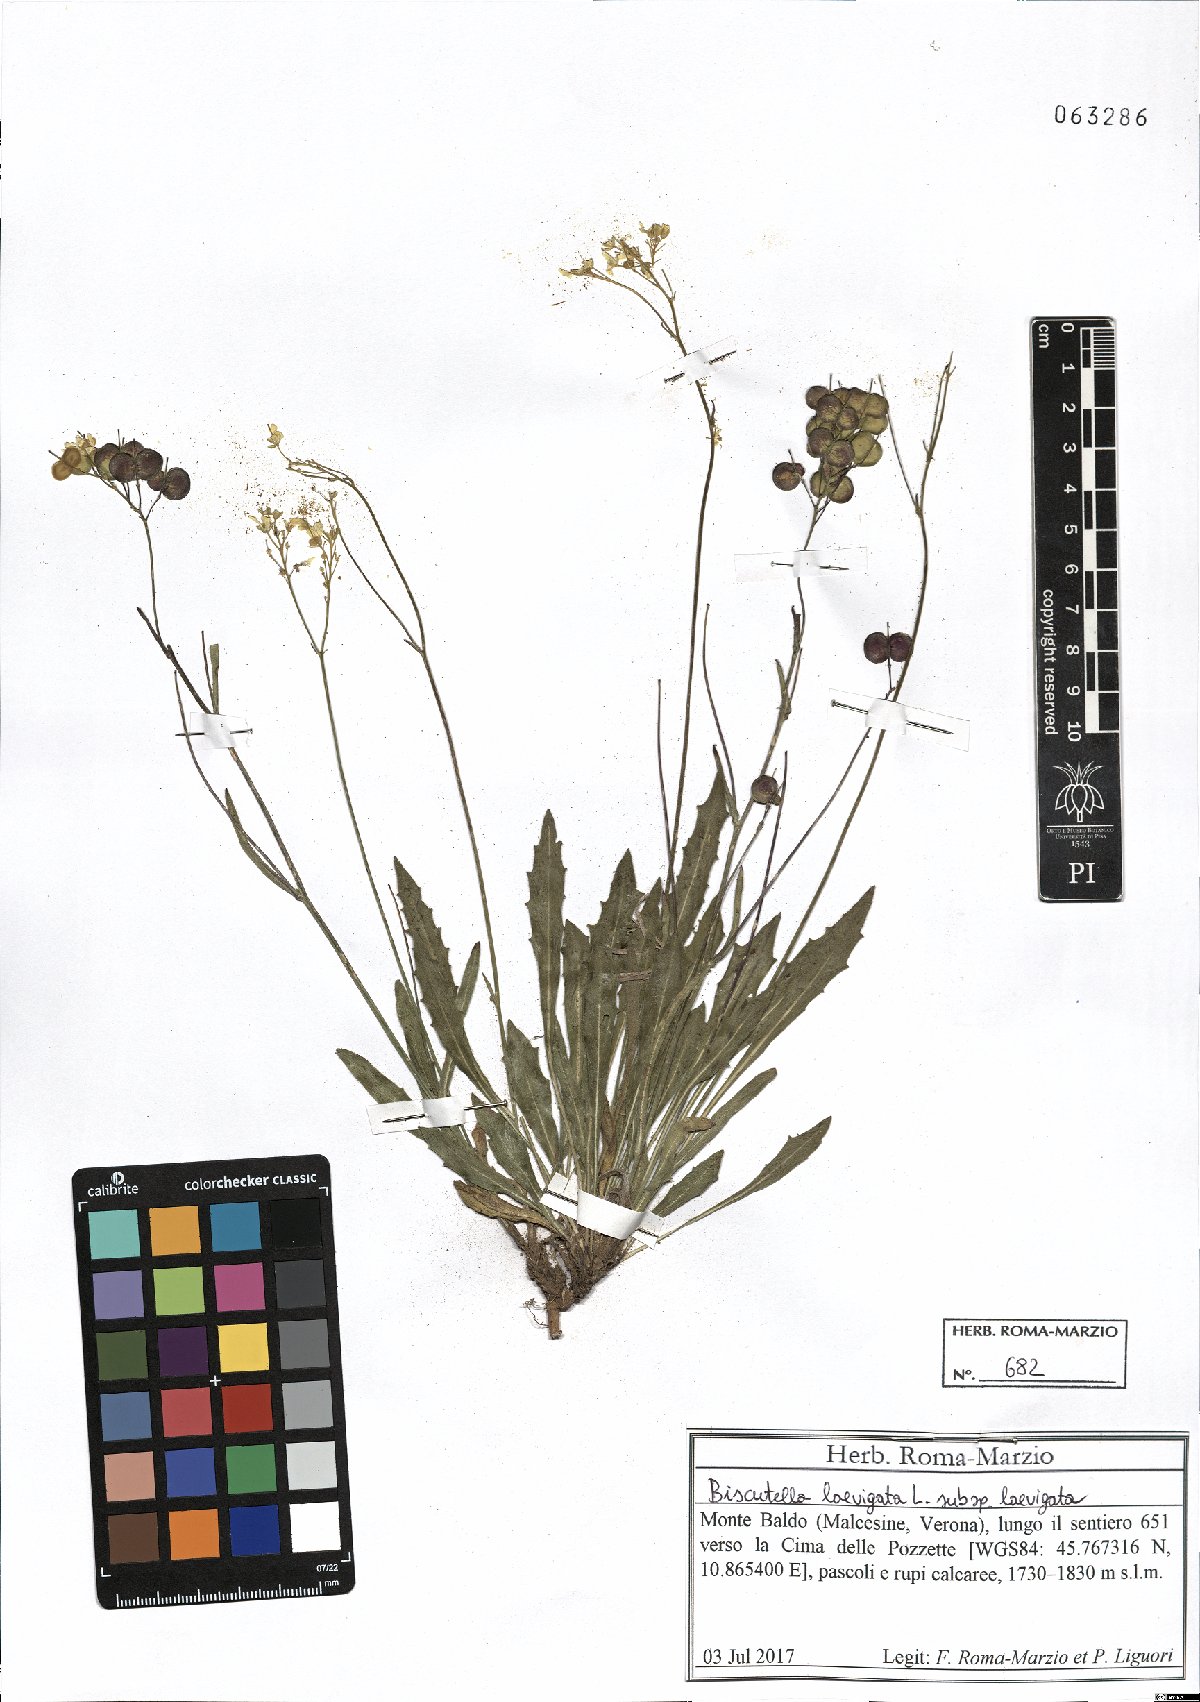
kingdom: Plantae
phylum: Tracheophyta
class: Magnoliopsida
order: Brassicales
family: Brassicaceae
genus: Biscutella
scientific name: Biscutella laevigata
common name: Buckler mustard
